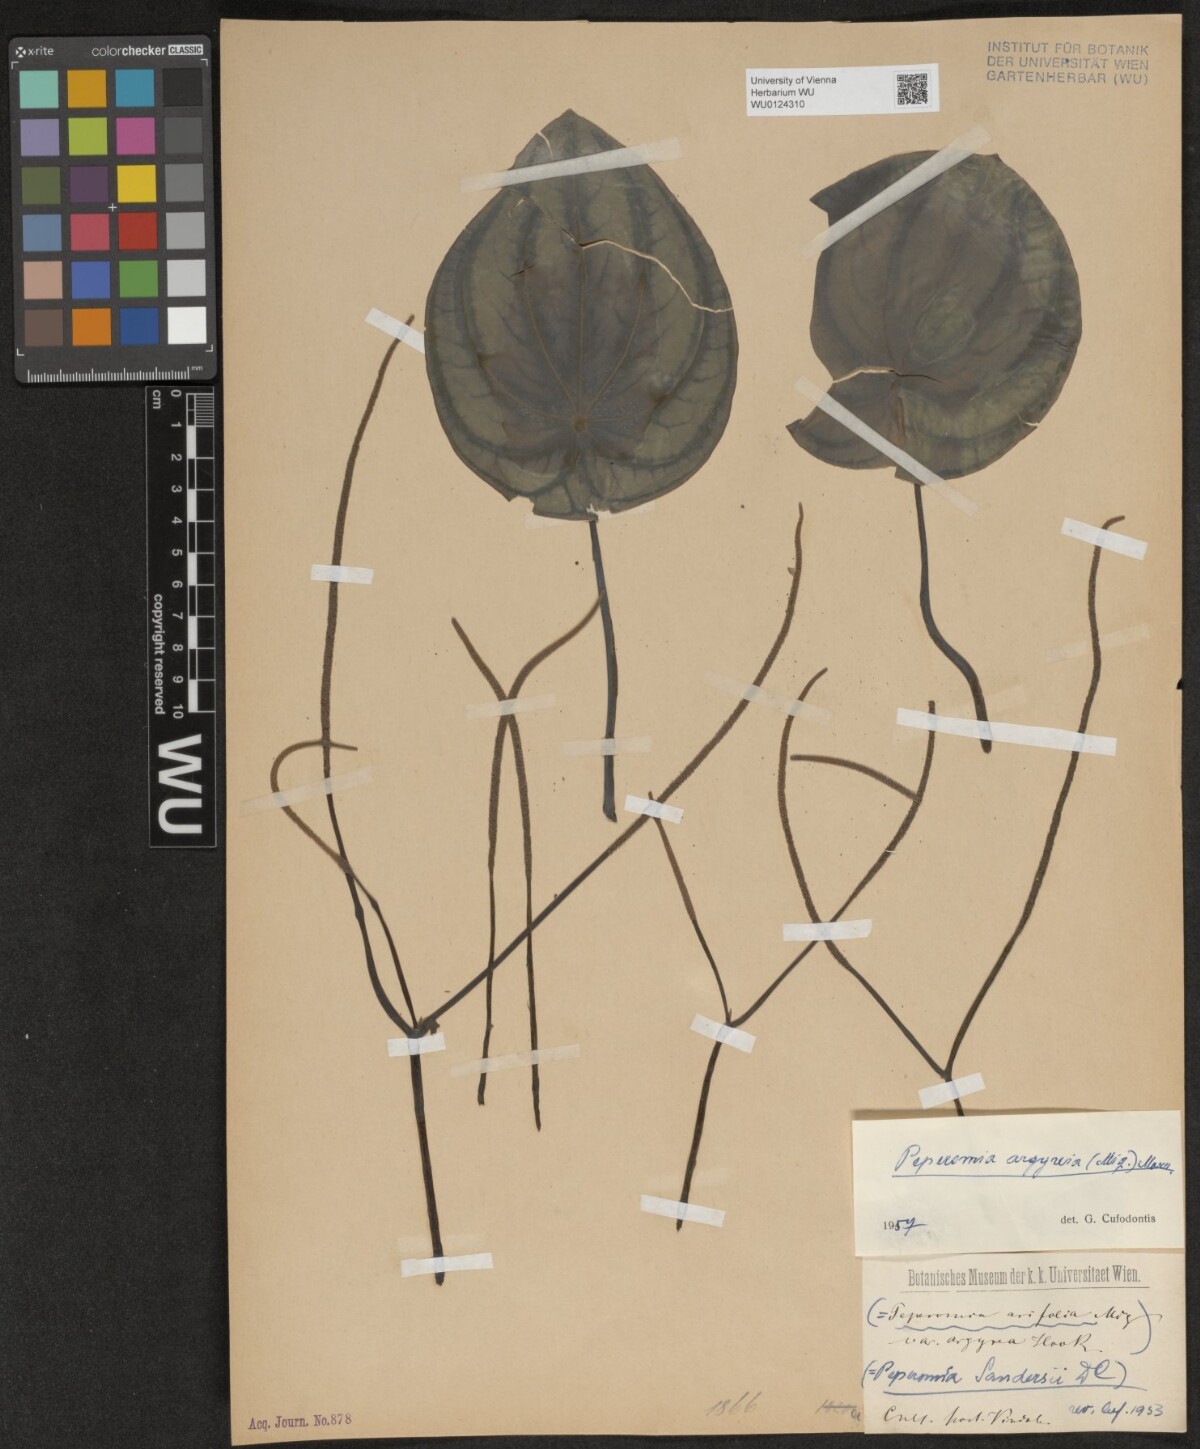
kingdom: Plantae
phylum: Tracheophyta
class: Magnoliopsida
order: Piperales
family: Piperaceae
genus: Peperomia
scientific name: Peperomia argyreia
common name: Watermelon pepper
